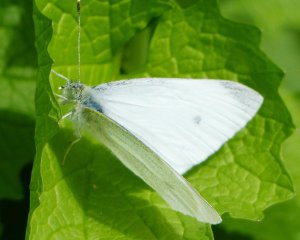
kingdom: Animalia
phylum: Arthropoda
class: Insecta
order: Lepidoptera
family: Pieridae
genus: Pieris
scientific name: Pieris rapae
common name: Cabbage White
